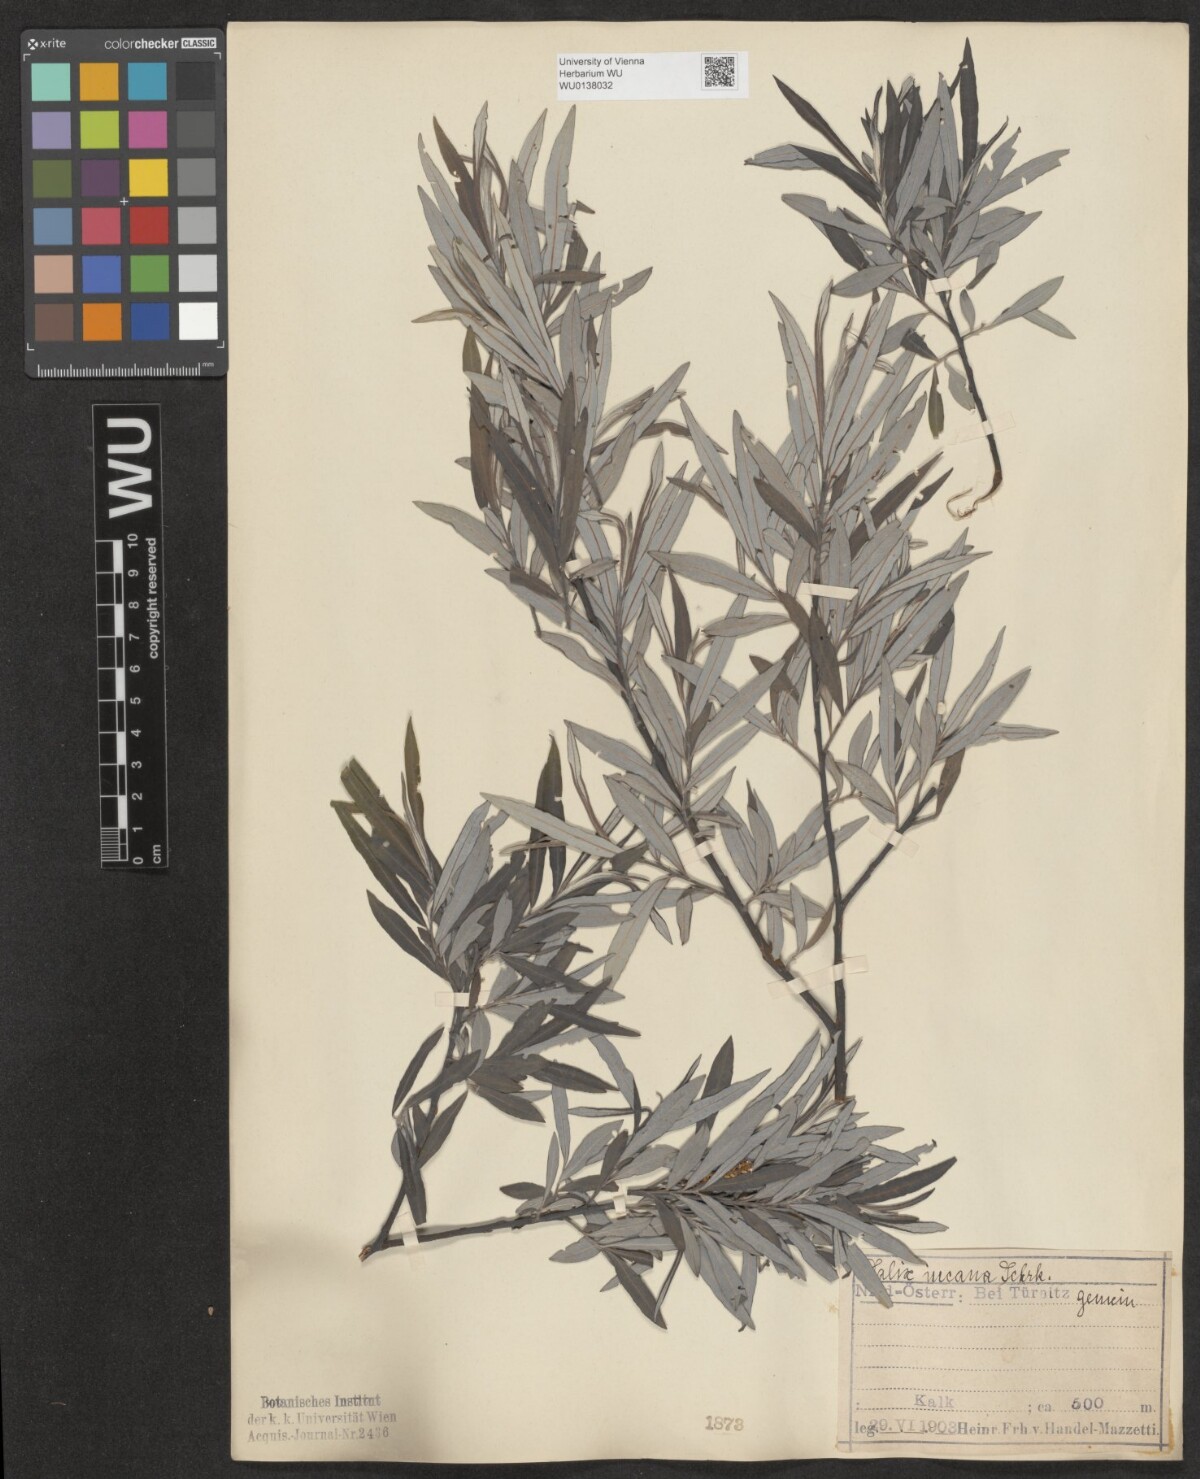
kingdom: Plantae
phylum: Tracheophyta
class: Magnoliopsida
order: Malpighiales
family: Salicaceae
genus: Salix
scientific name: Salix eleagnos
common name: Elaeagnus willow
